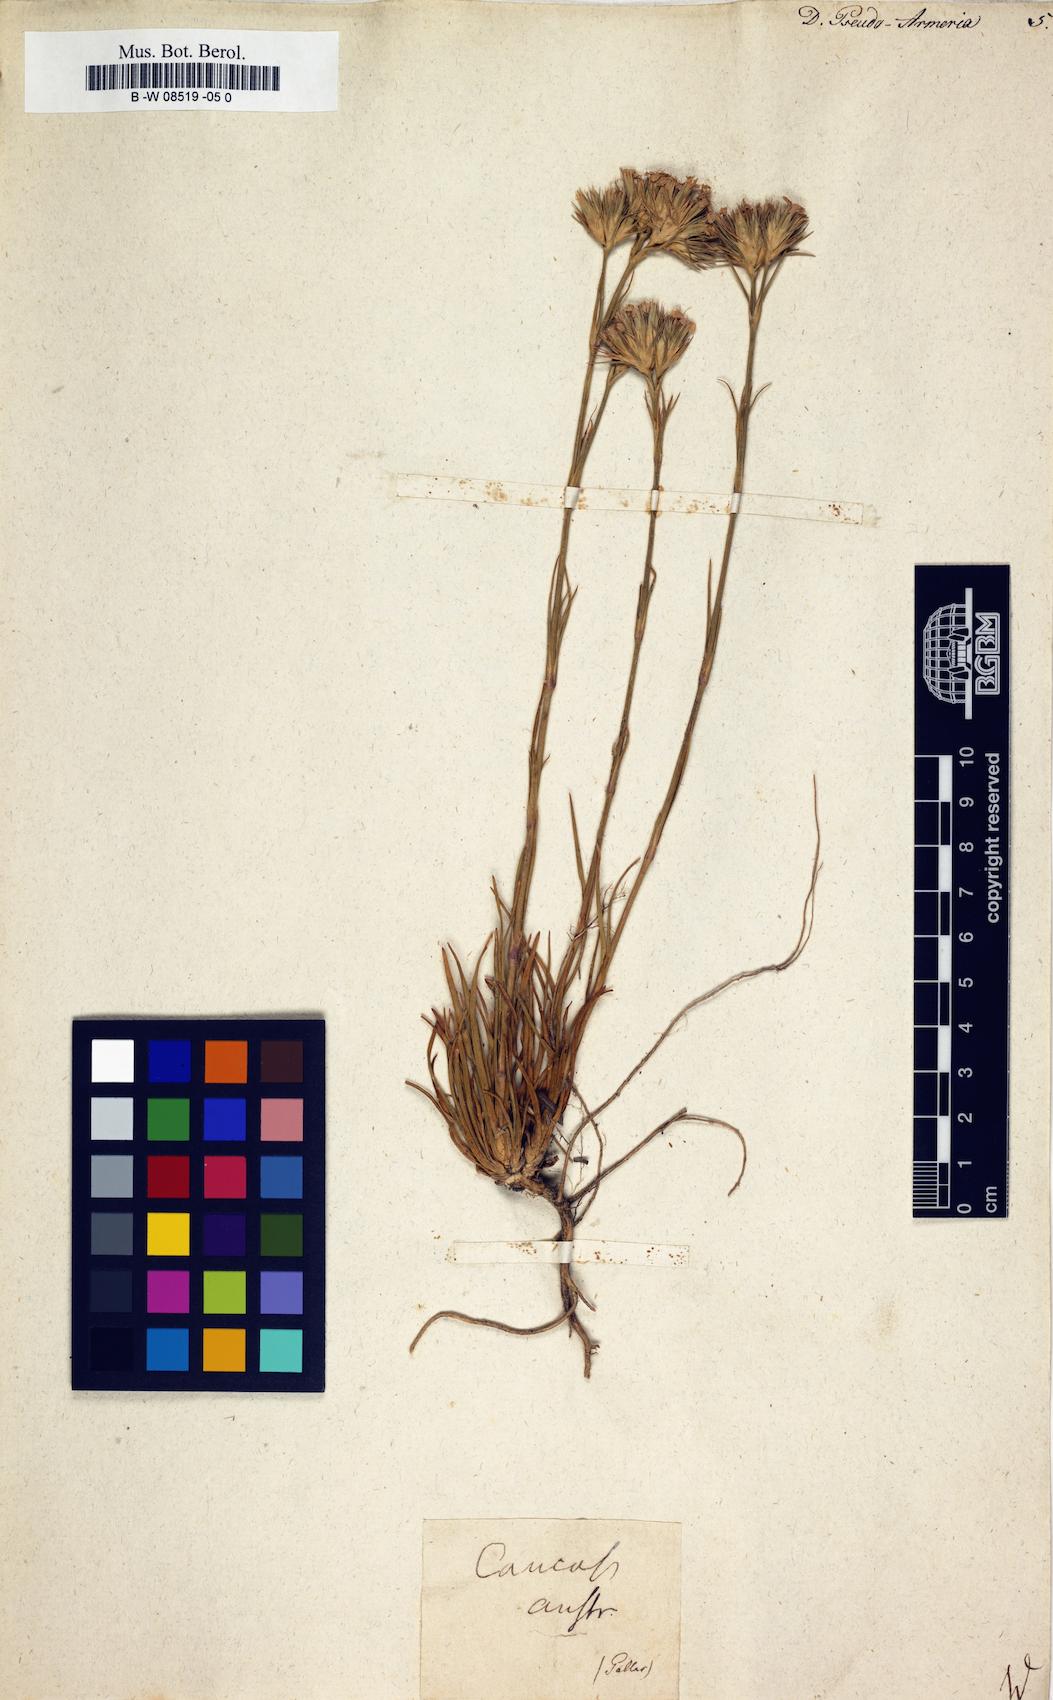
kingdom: Plantae
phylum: Tracheophyta
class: Magnoliopsida
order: Caryophyllales
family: Caryophyllaceae
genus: Dianthus
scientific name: Dianthus pseudoarmeria
